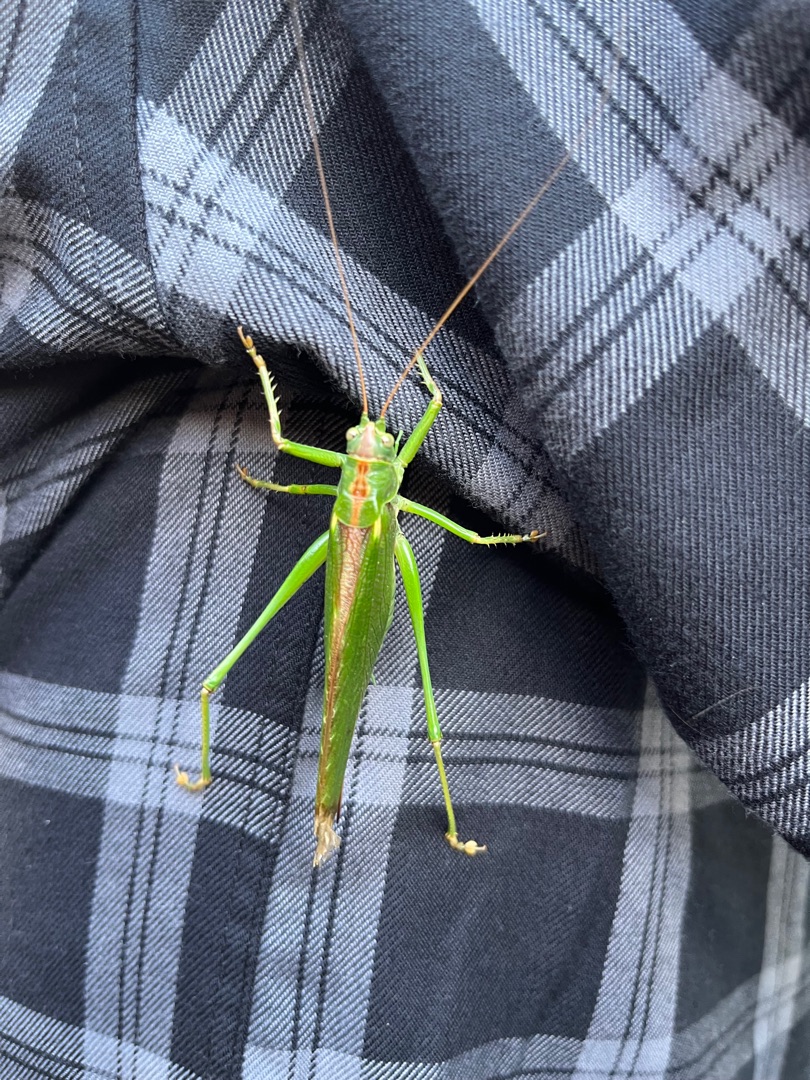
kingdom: Animalia
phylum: Arthropoda
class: Insecta
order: Orthoptera
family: Tettigoniidae
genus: Tettigonia
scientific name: Tettigonia viridissima
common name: Stor grøn løvgræshoppe
